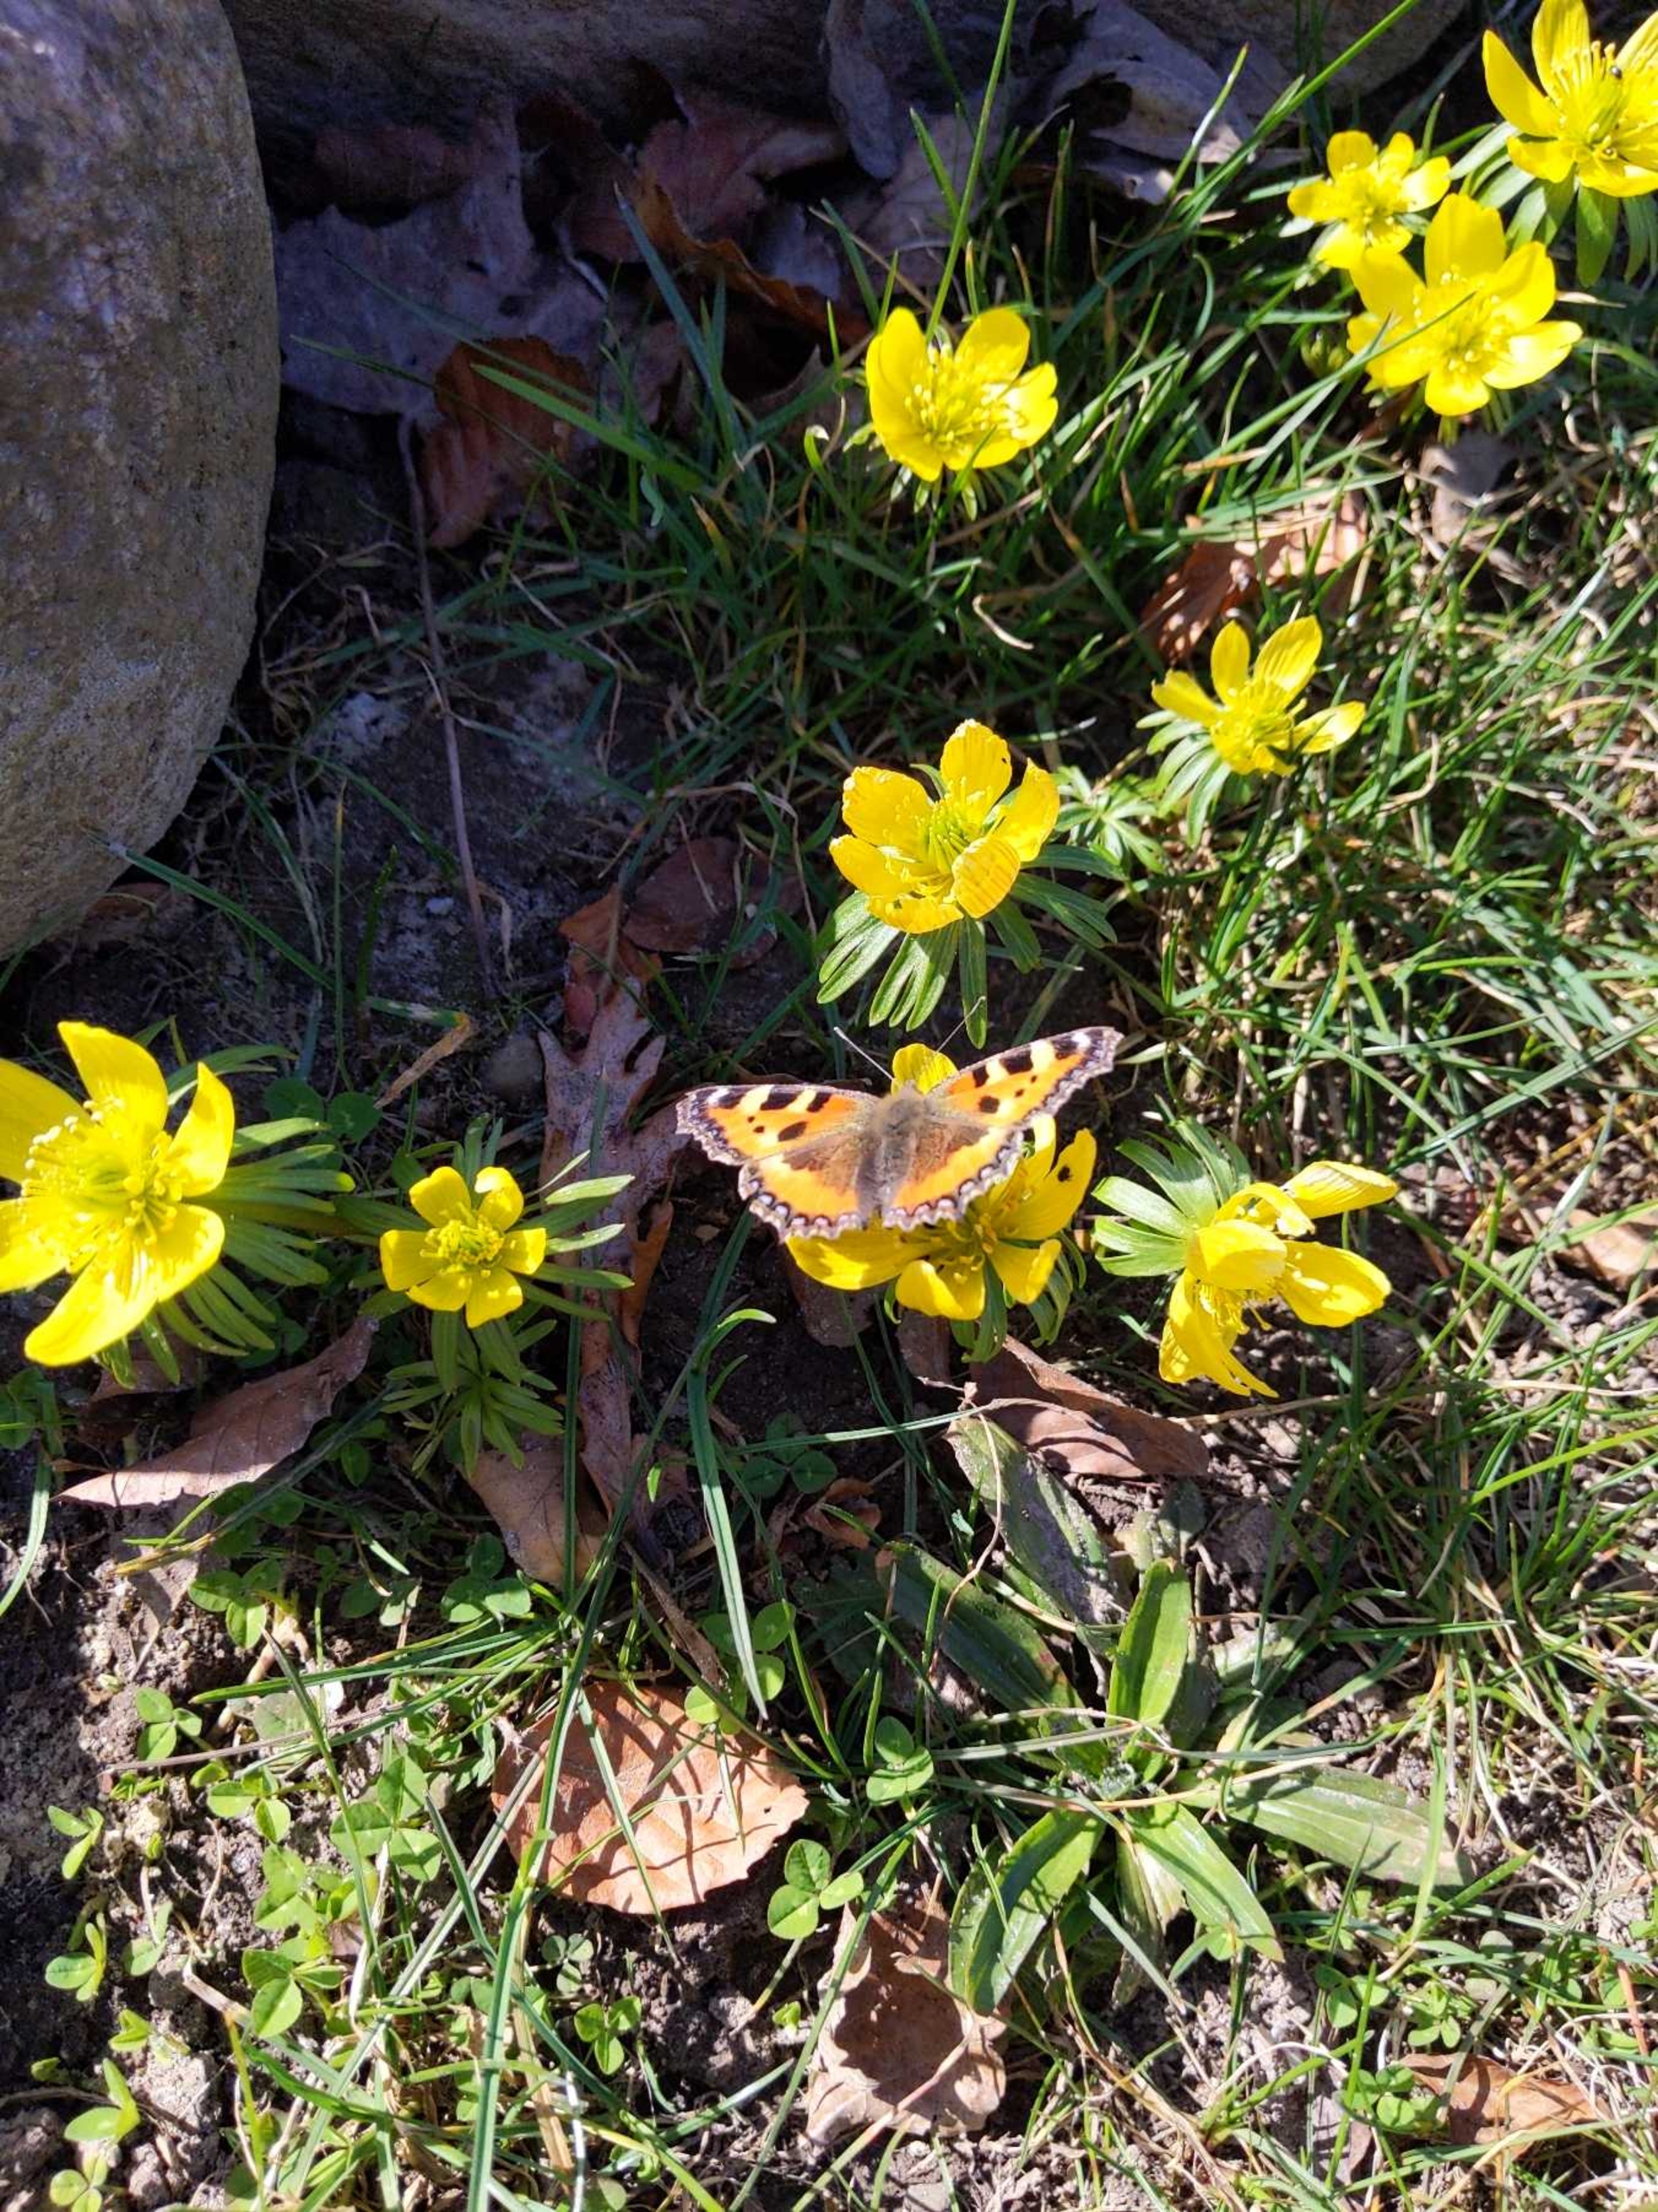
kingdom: Animalia
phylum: Arthropoda
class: Insecta
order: Lepidoptera
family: Nymphalidae
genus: Aglais
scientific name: Aglais urticae
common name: Nældens takvinge
